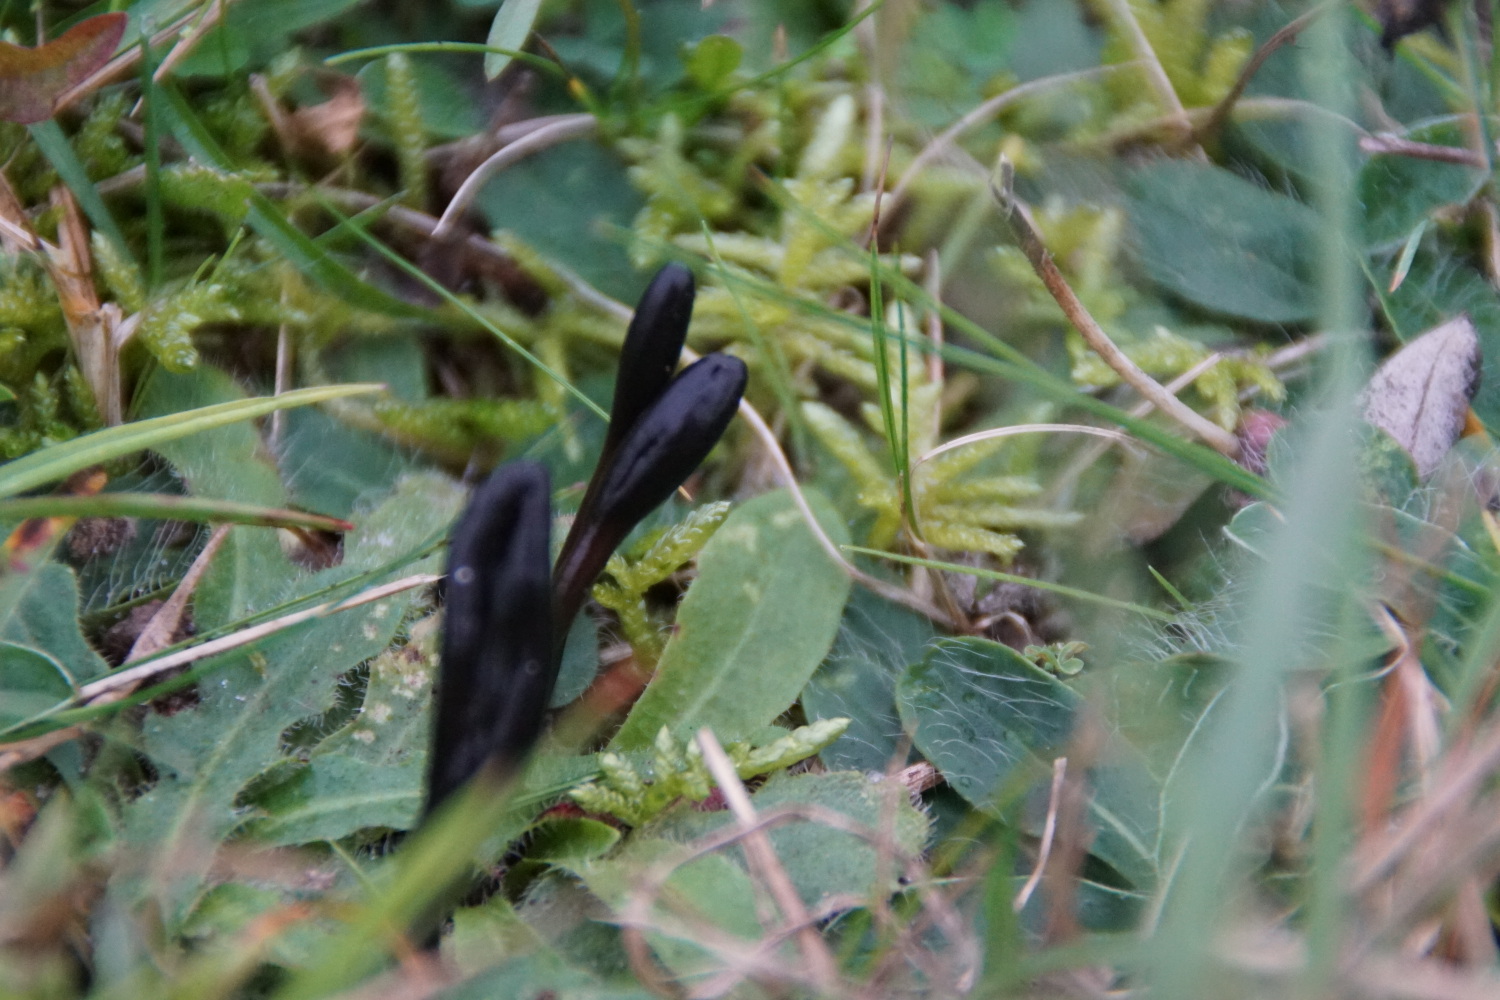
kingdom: Fungi
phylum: Ascomycota
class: Geoglossomycetes
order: Geoglossales
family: Geoglossaceae
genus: Glutinoglossum
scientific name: Glutinoglossum glutinosum
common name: slimet jordtunge
